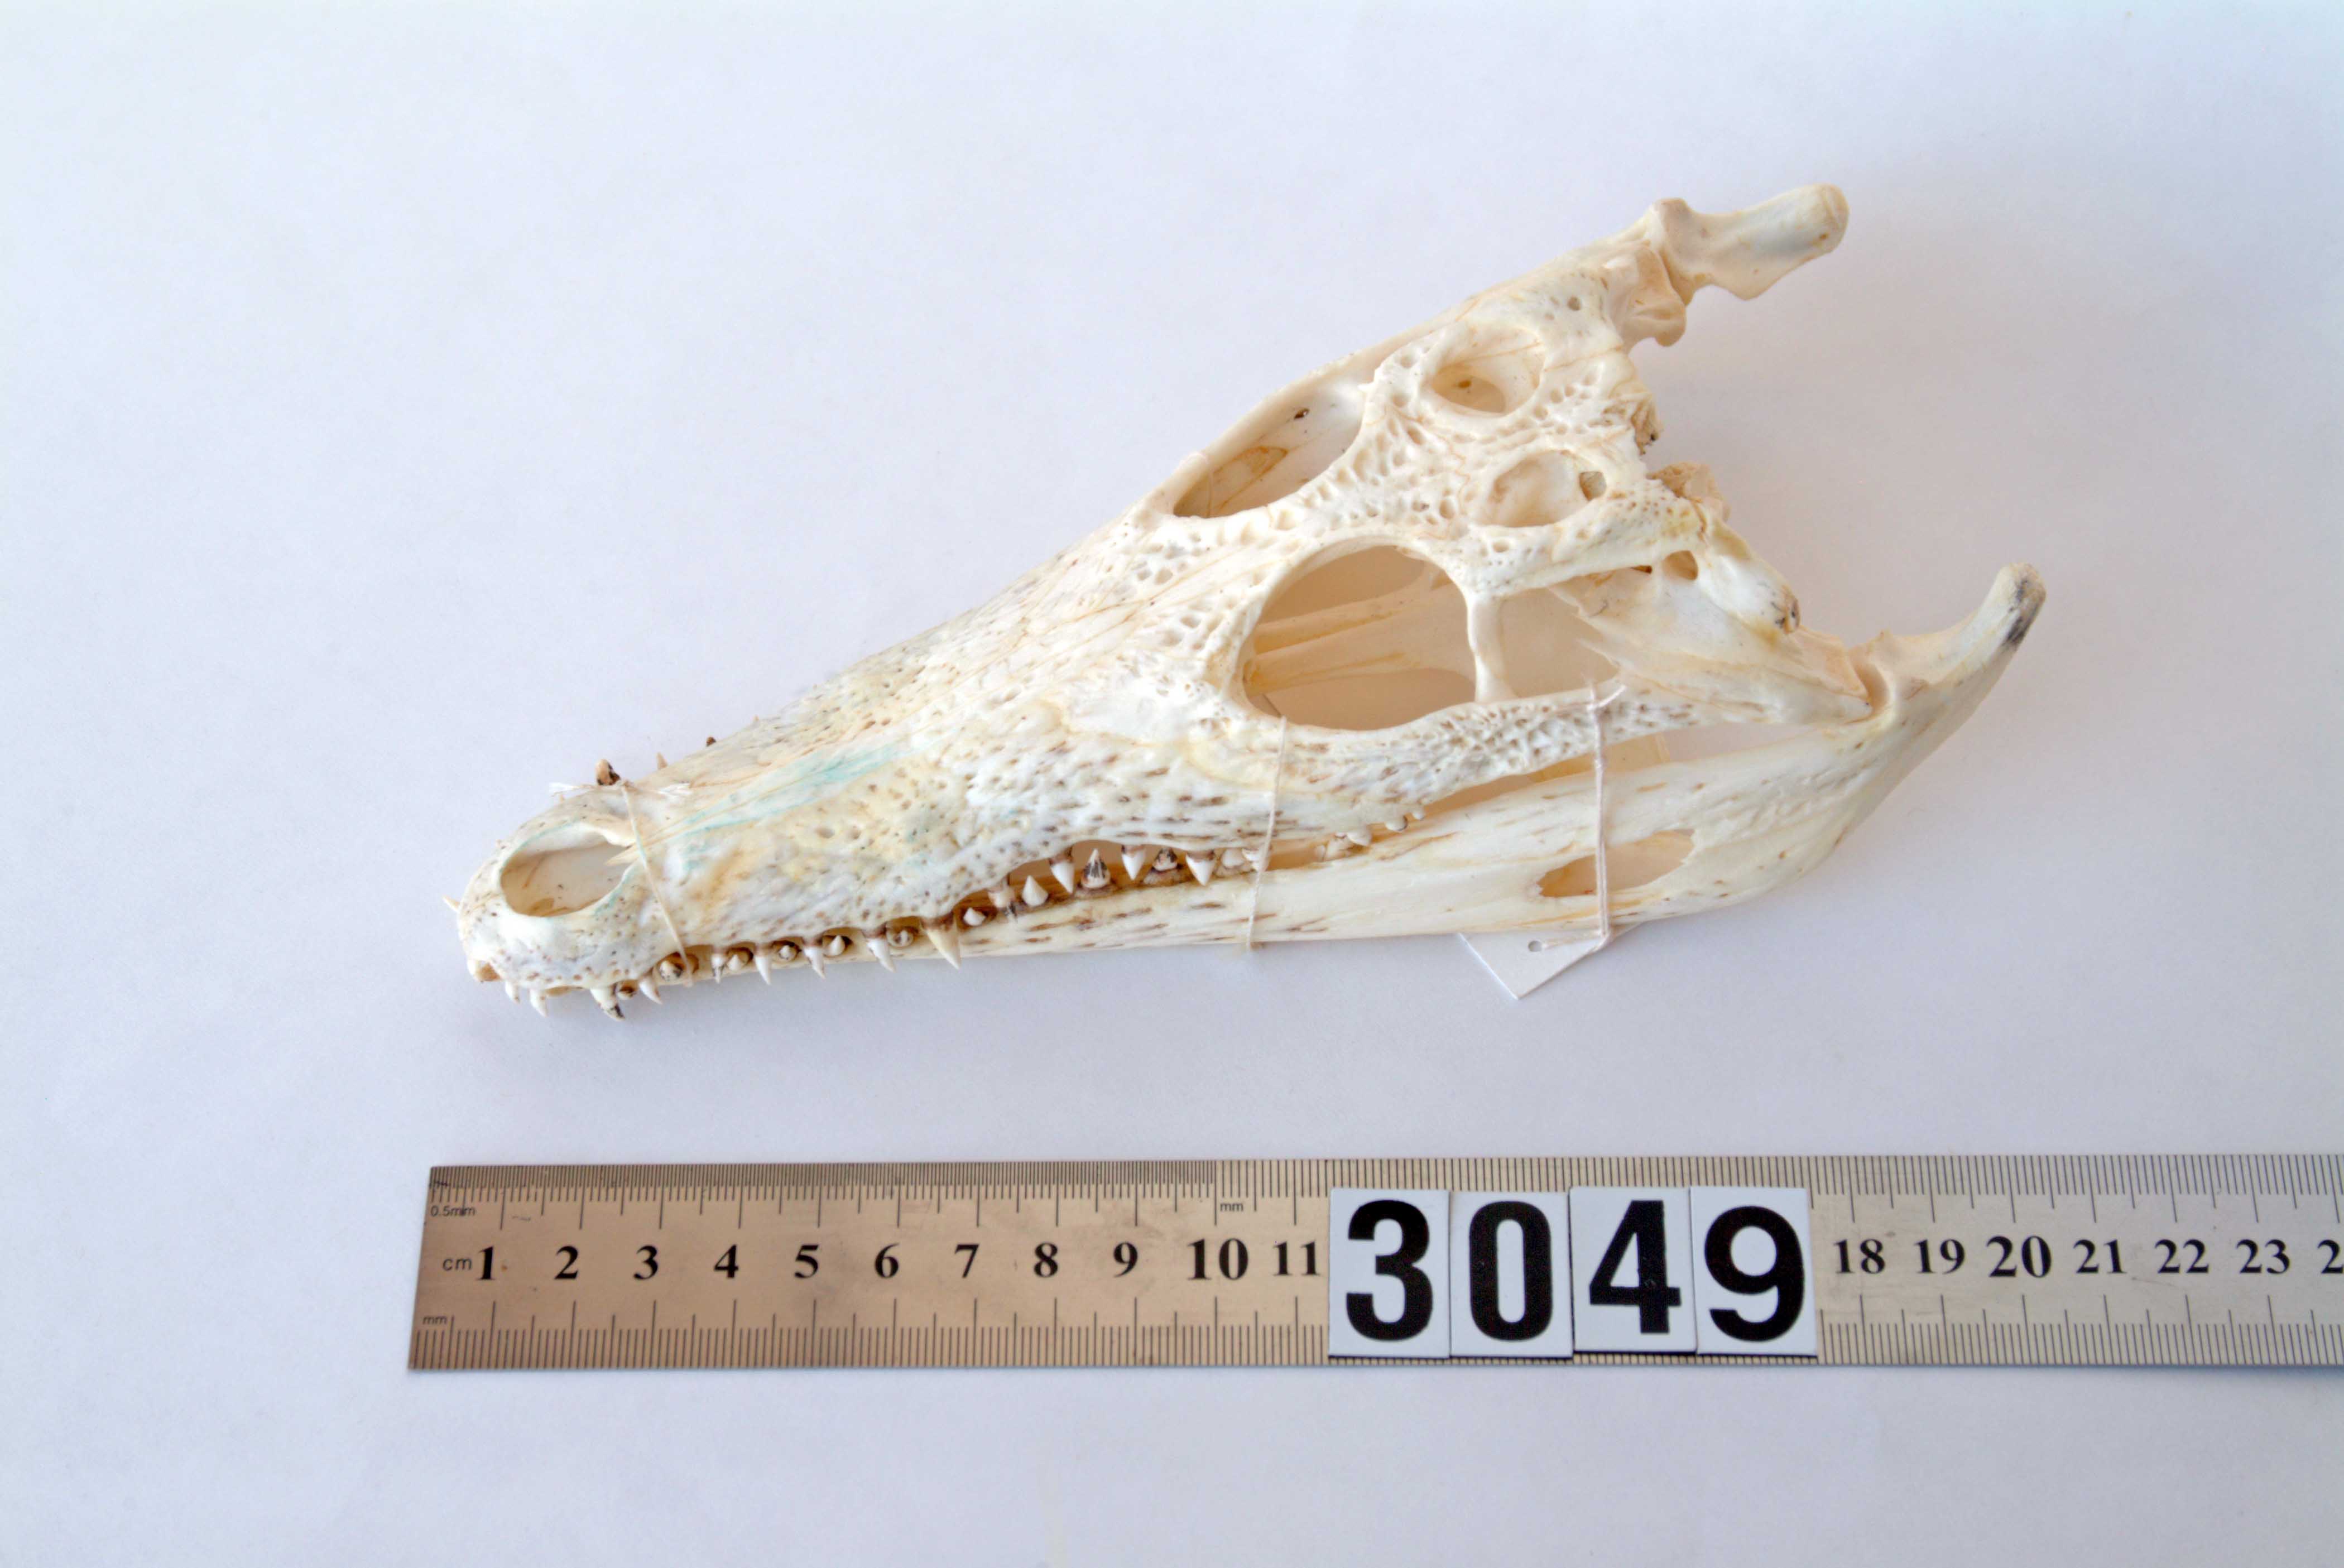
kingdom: Animalia
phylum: Chordata
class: Crocodylia
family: Crocodylidae
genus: Crocodylus
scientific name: Crocodylus
